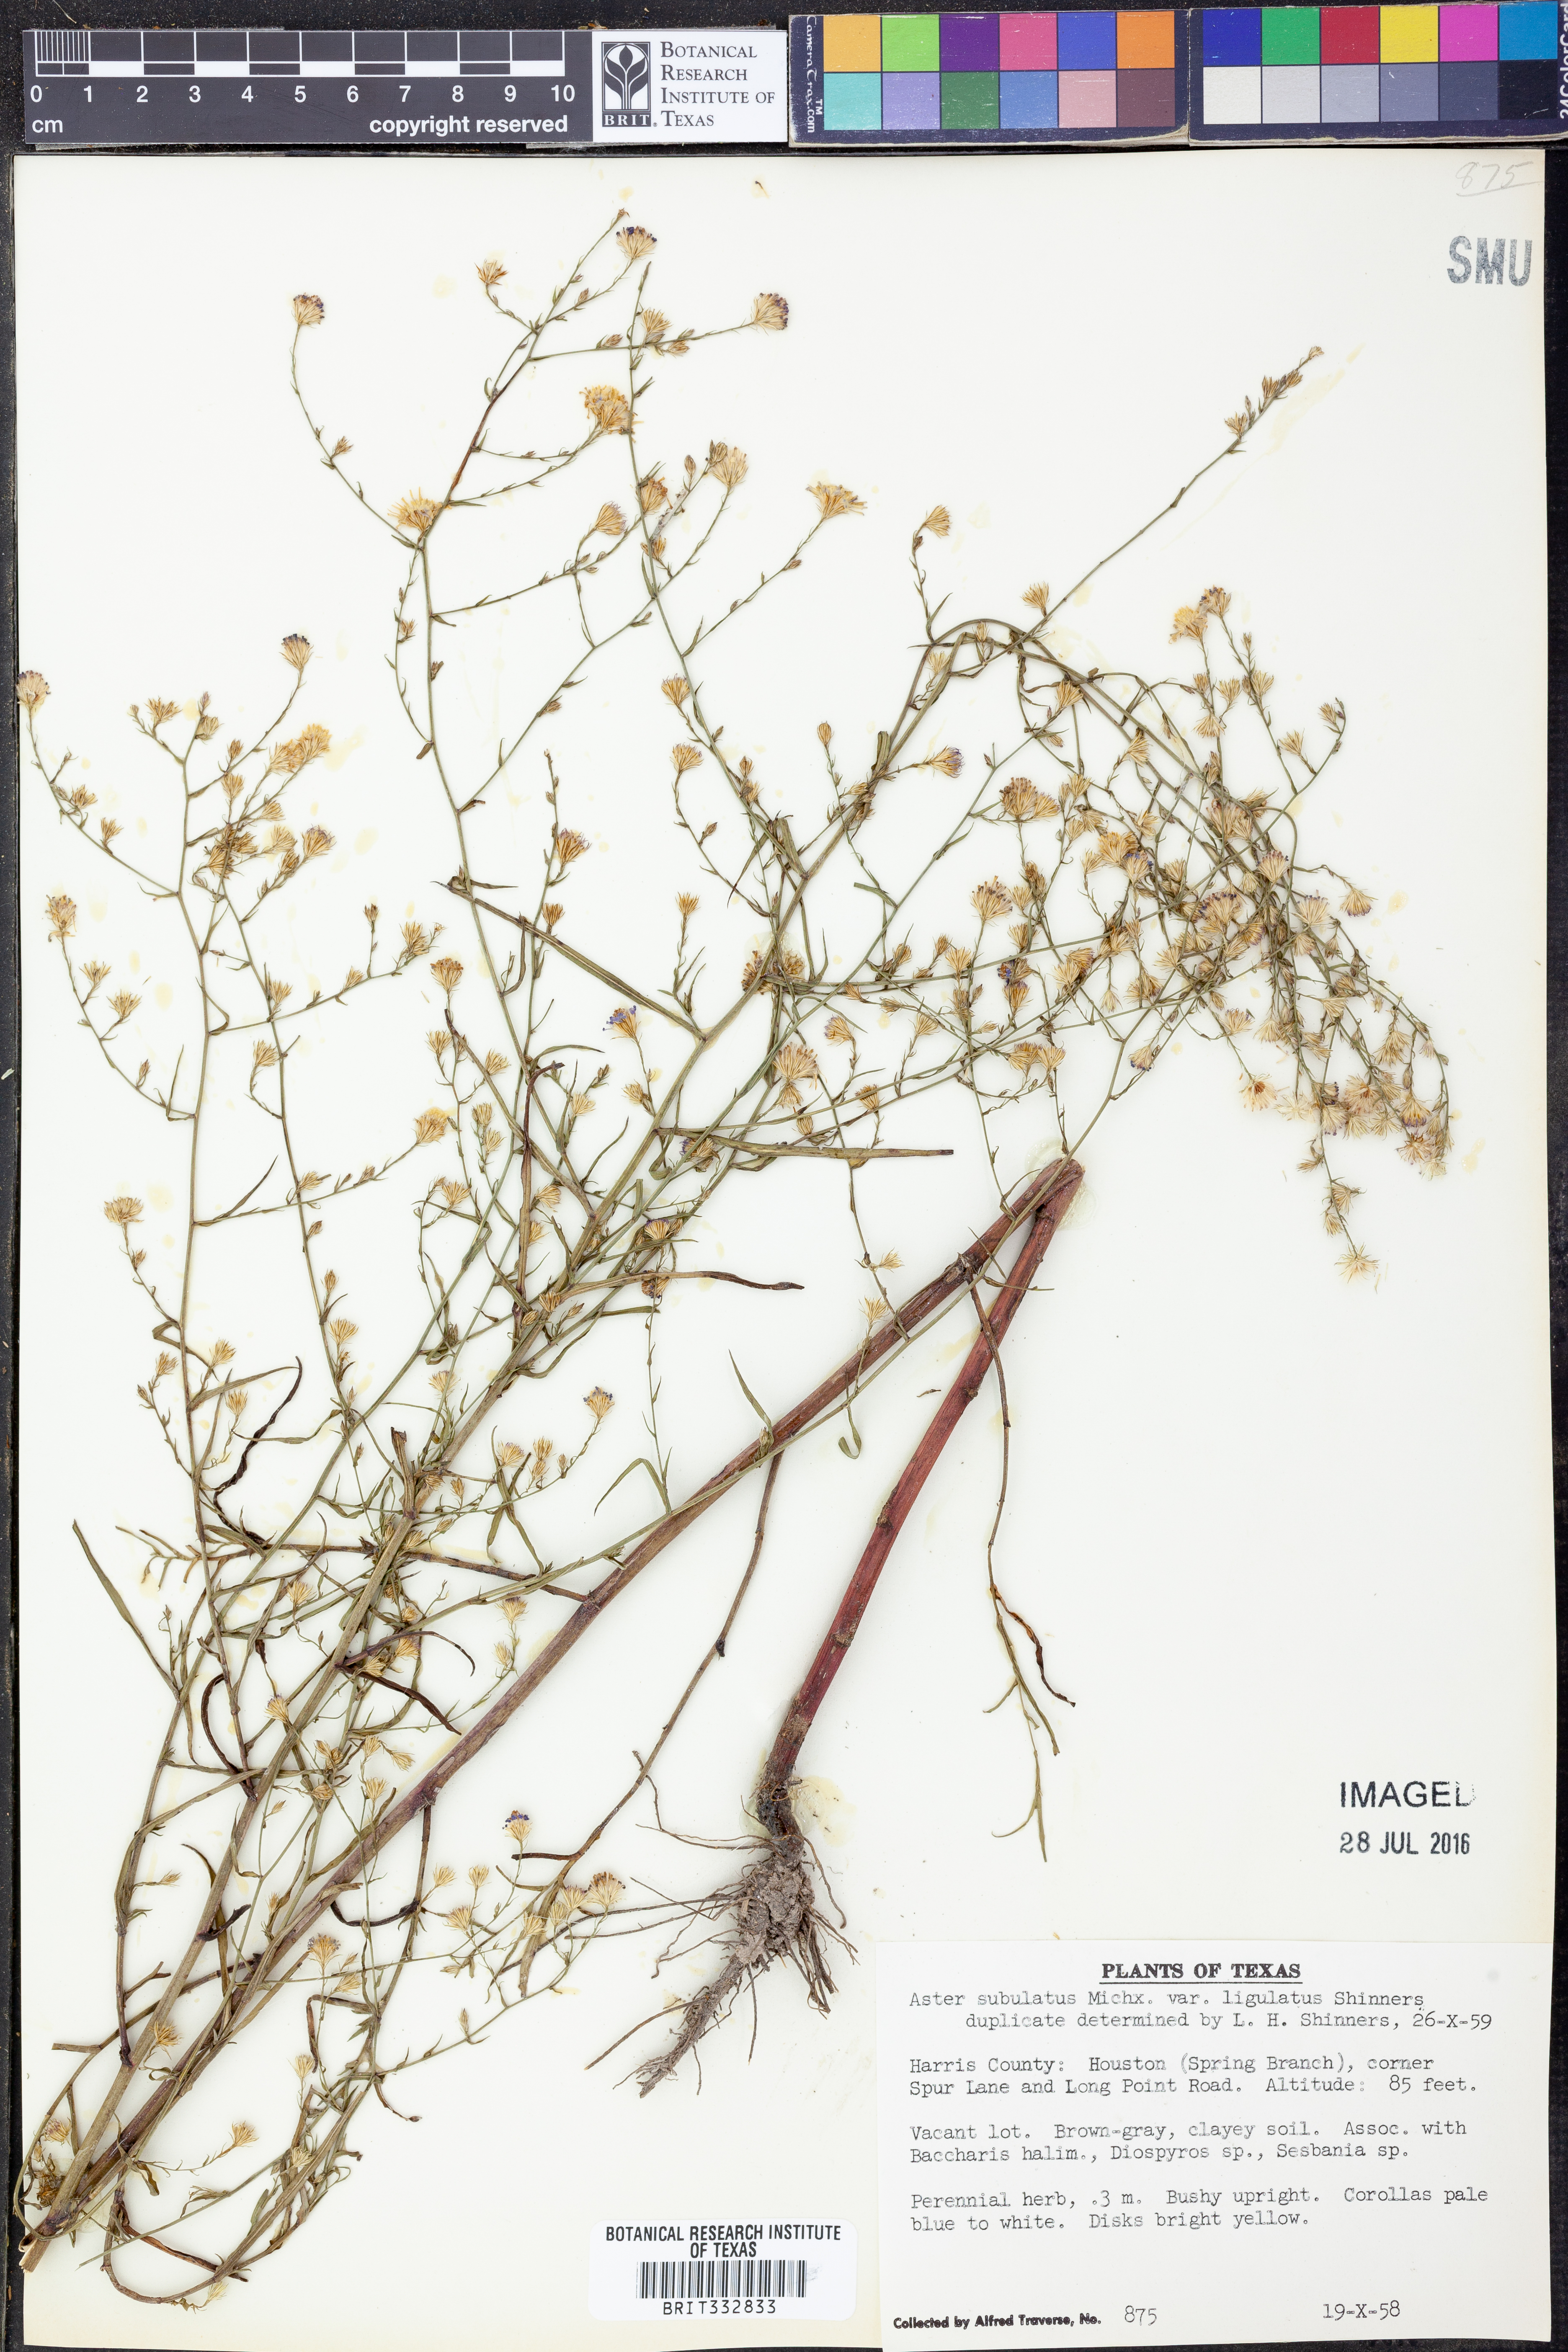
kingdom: Plantae
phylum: Tracheophyta
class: Magnoliopsida
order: Asterales
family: Asteraceae
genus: Symphyotrichum
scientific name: Symphyotrichum divaricatum
